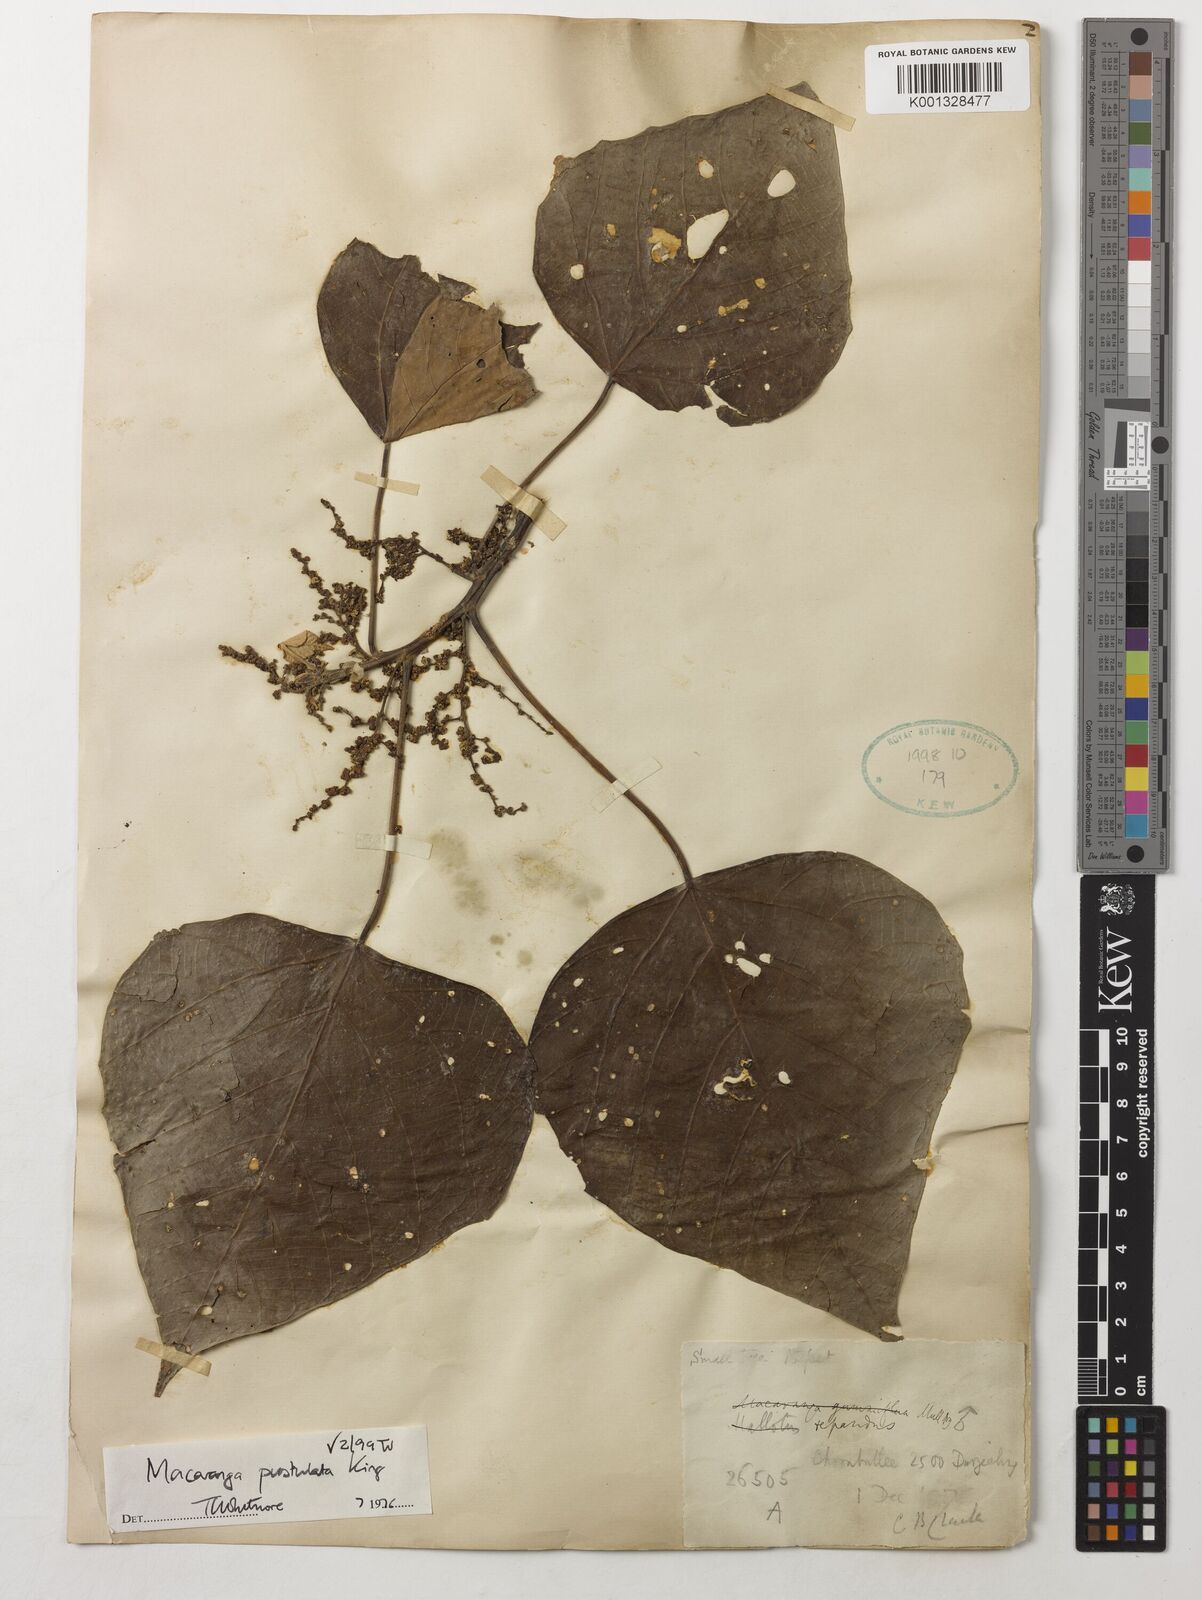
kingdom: Plantae
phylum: Tracheophyta
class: Magnoliopsida
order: Malpighiales
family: Euphorbiaceae
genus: Macaranga
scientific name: Macaranga denticulata
